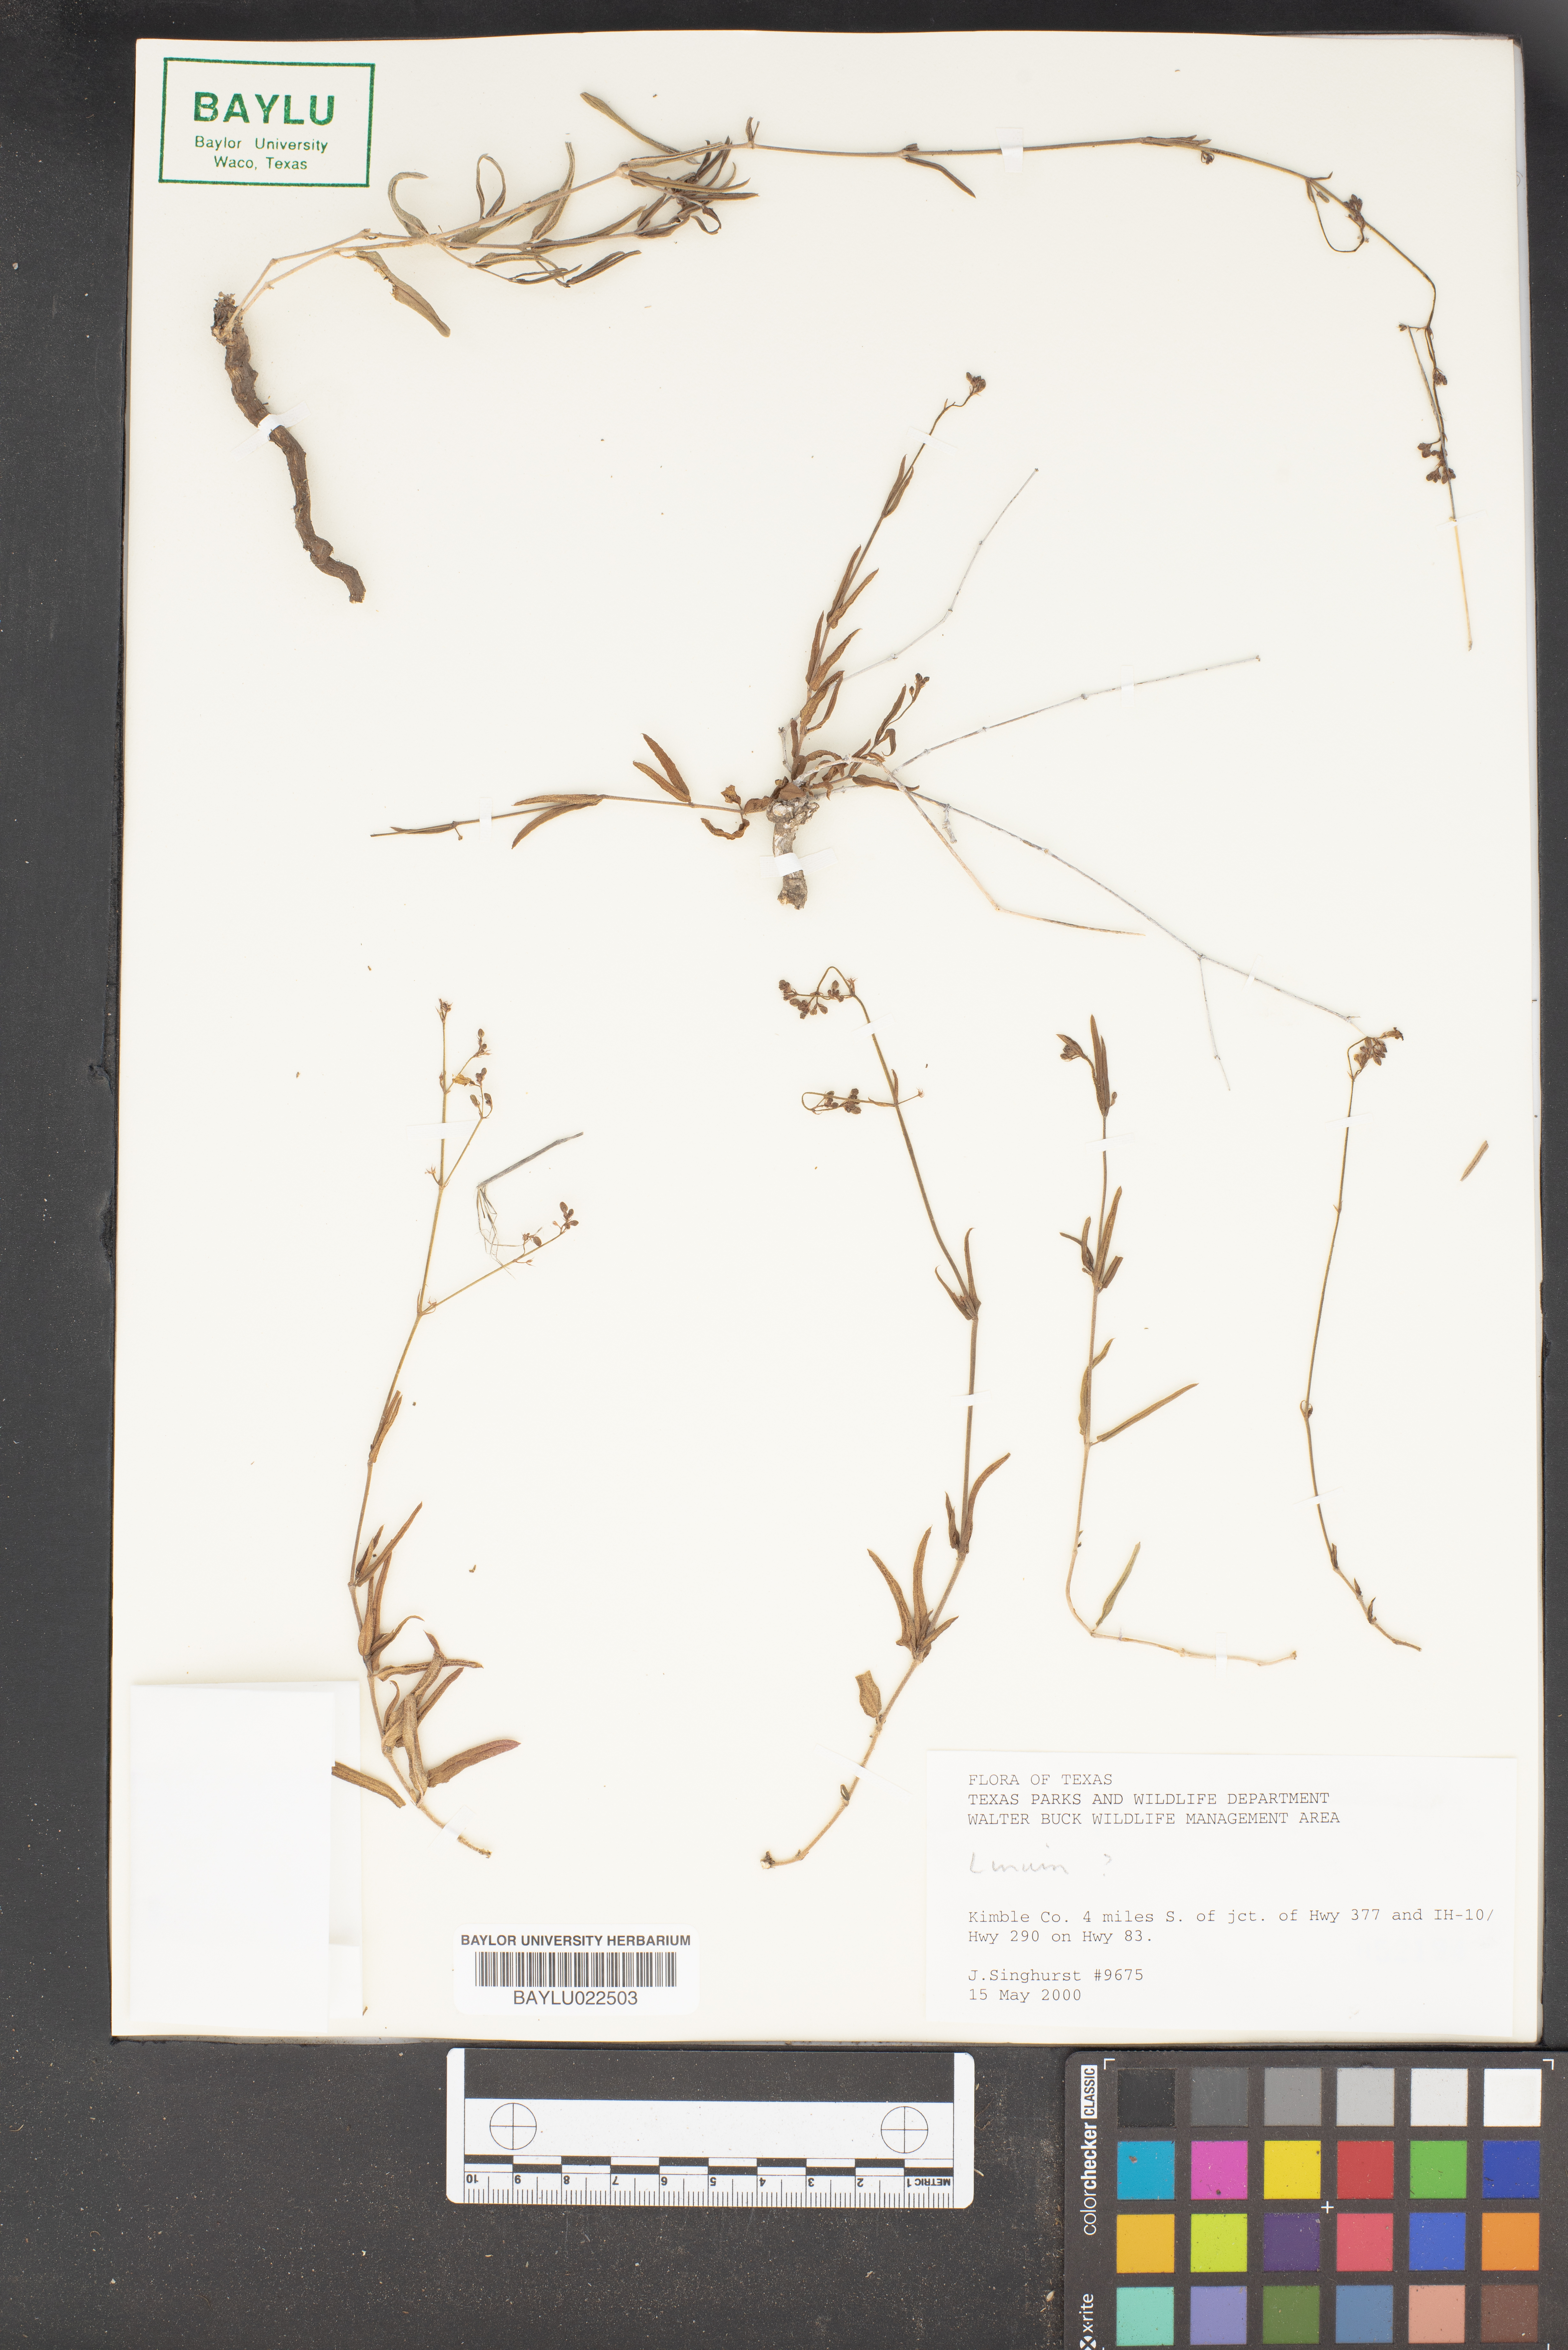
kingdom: Plantae
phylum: Tracheophyta
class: Magnoliopsida
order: Malpighiales
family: Linaceae
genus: Linum
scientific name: Linum
